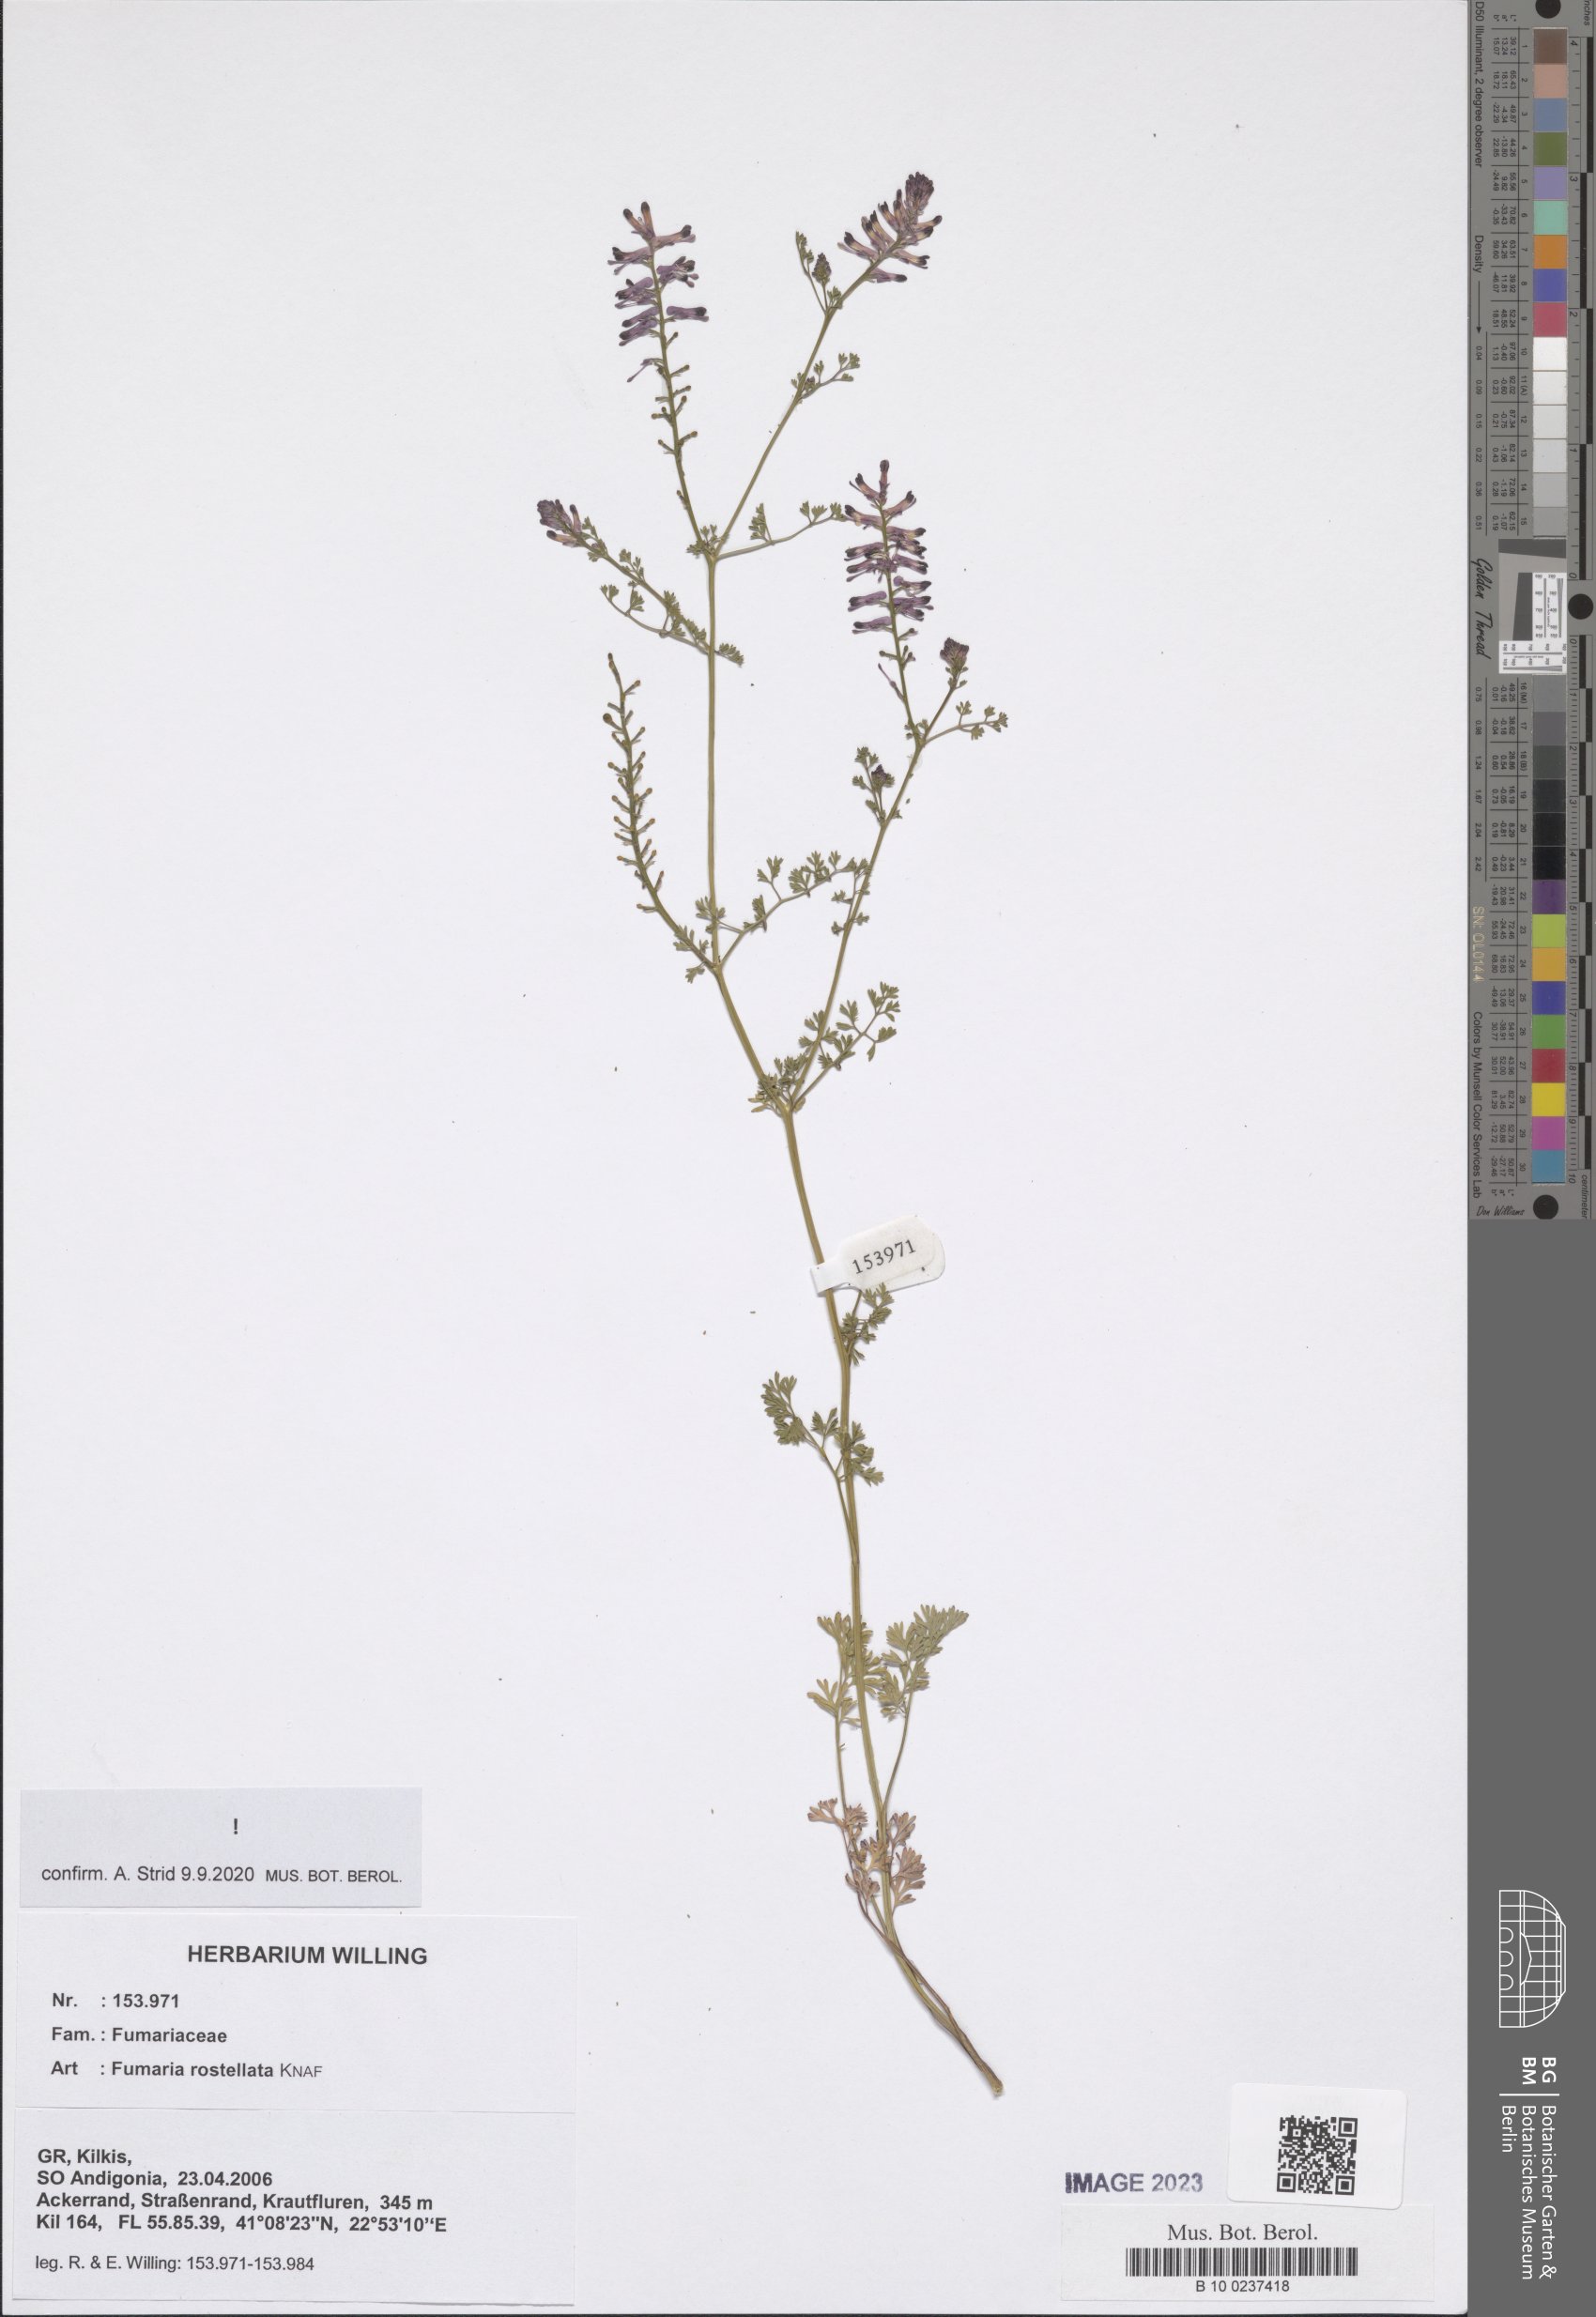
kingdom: Plantae
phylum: Tracheophyta
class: Magnoliopsida
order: Ranunculales
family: Papaveraceae
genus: Fumaria
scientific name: Fumaria rostellata
